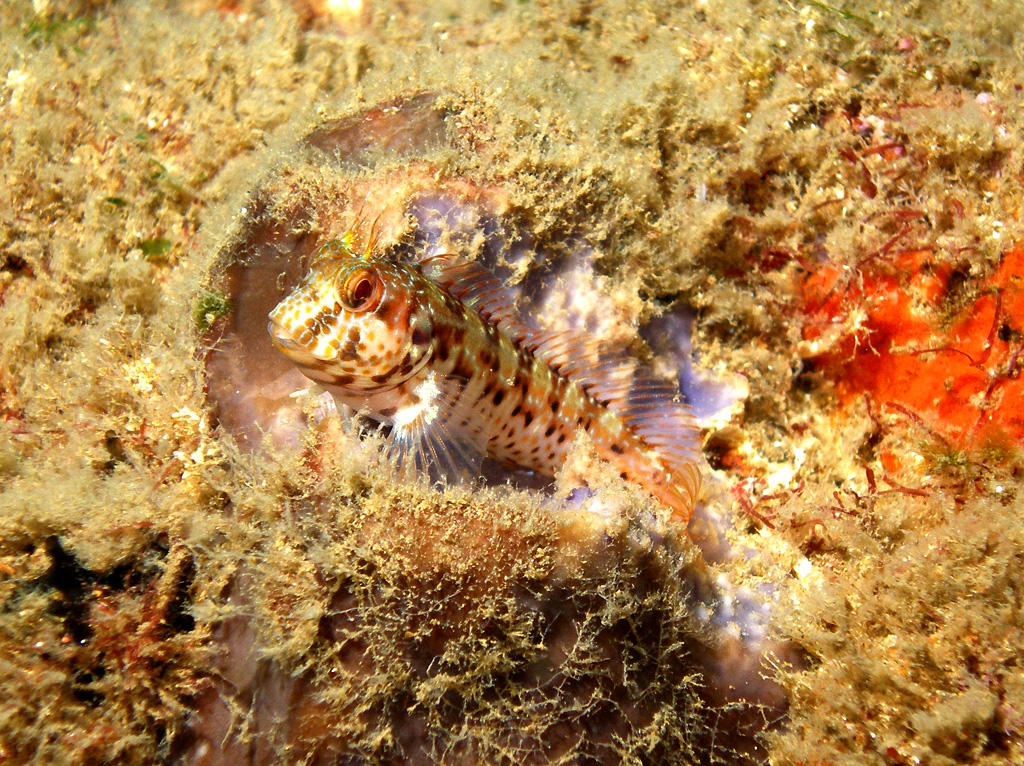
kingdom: Animalia
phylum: Chordata
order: Perciformes
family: Blenniidae
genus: Parablennius
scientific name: Parablennius pilicornis
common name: Ringneck blenny
